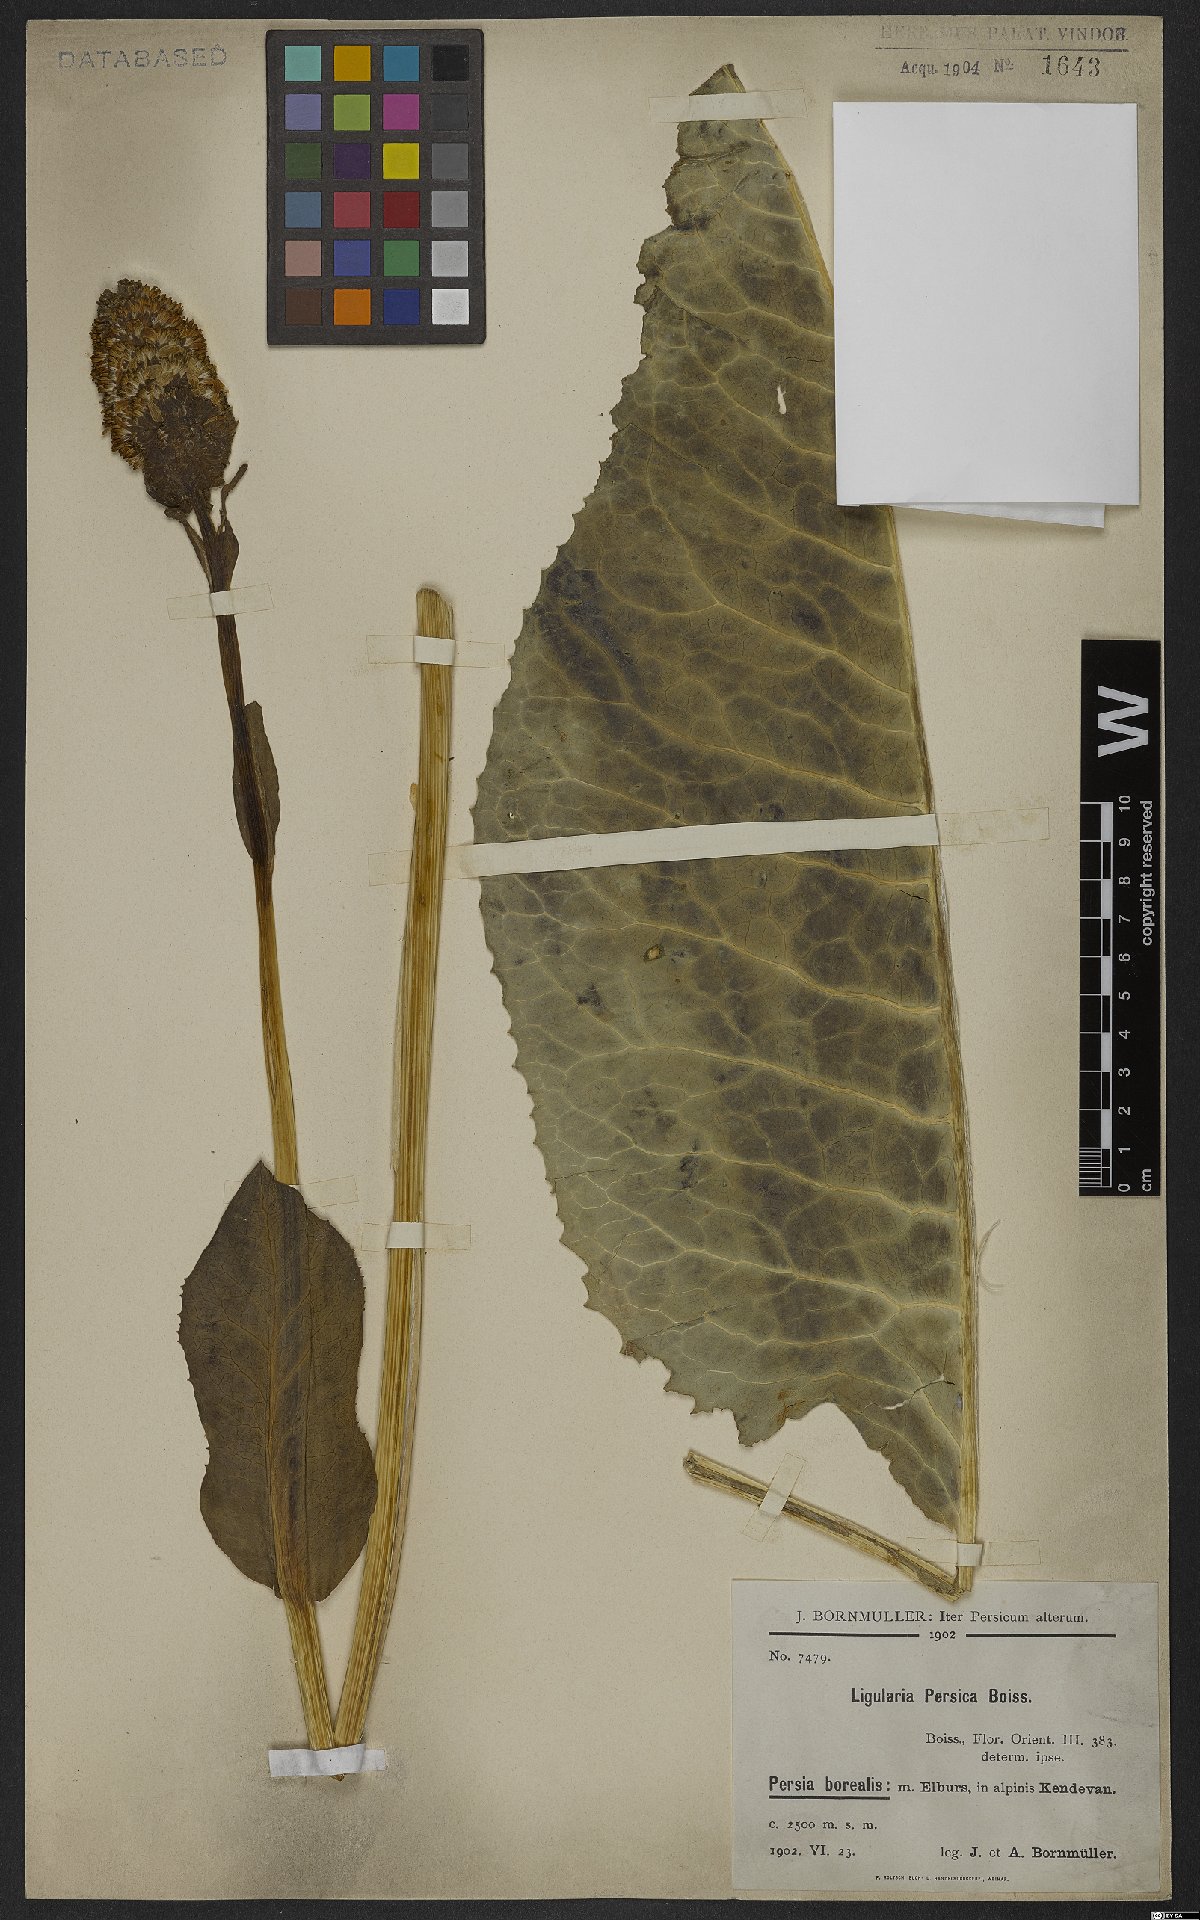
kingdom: Plantae
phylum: Tracheophyta
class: Magnoliopsida
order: Asterales
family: Asteraceae
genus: Dolichorrhiza
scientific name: Dolichorrhiza persica
